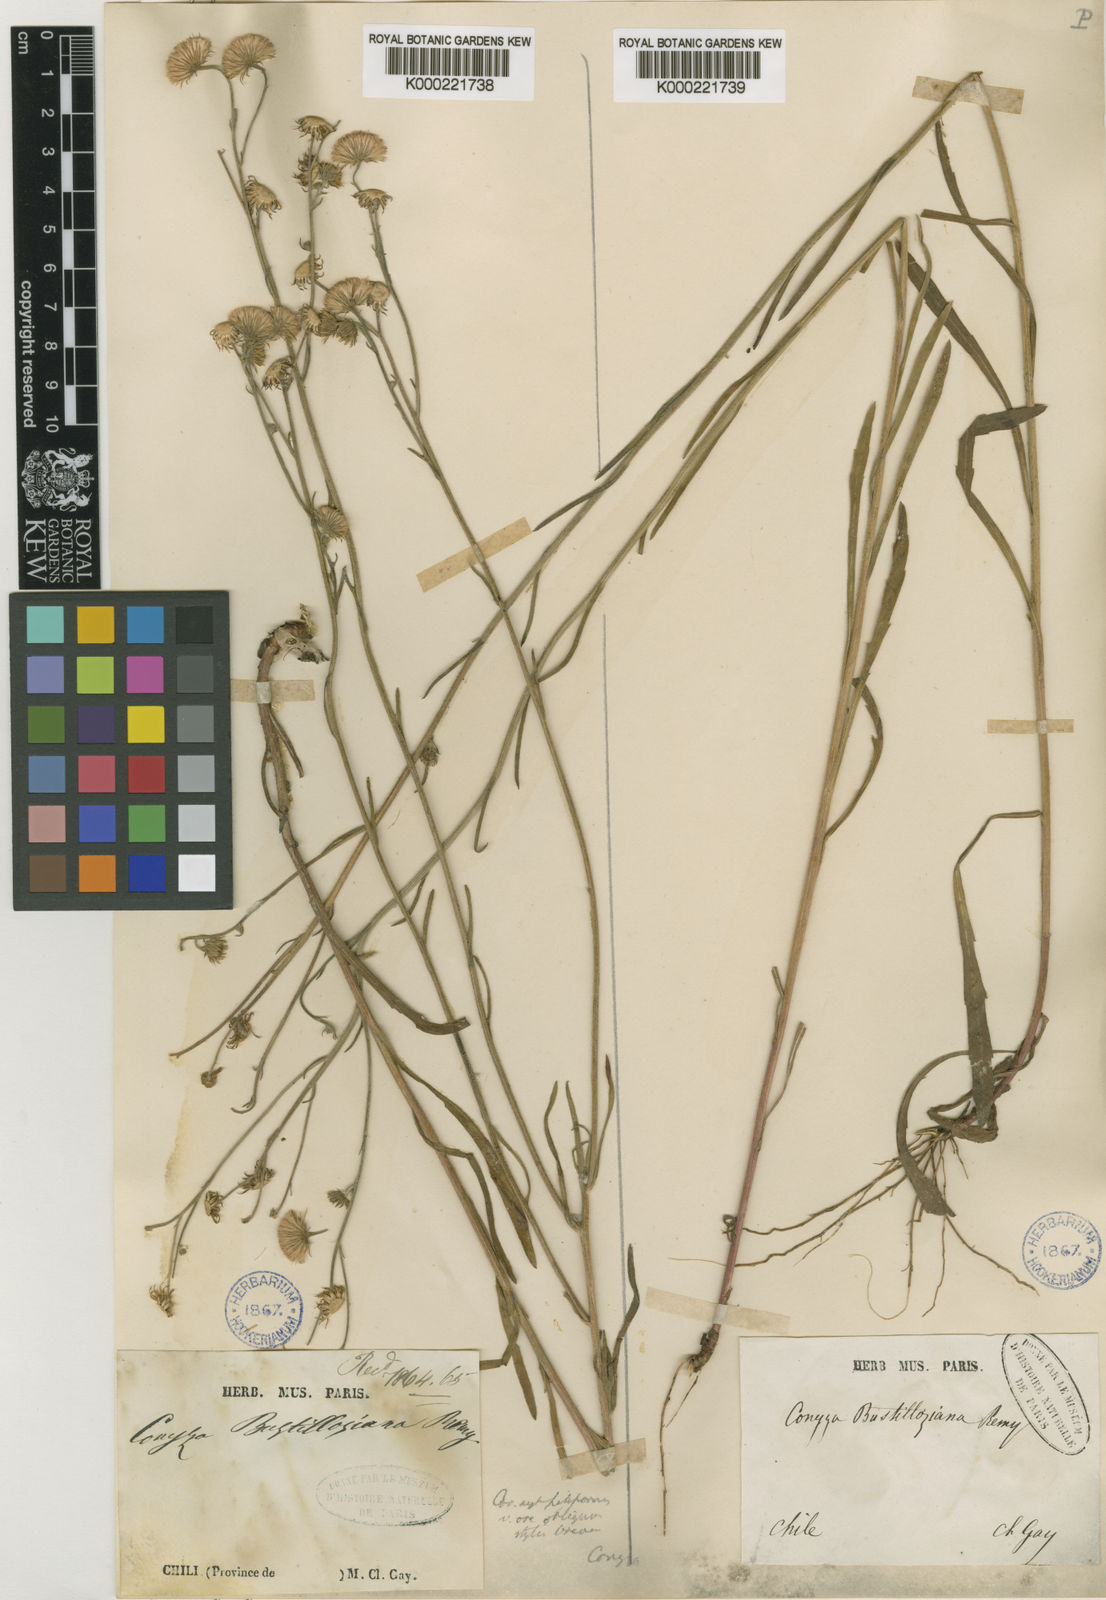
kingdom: Plantae
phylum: Tracheophyta
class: Magnoliopsida
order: Asterales
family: Asteraceae
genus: Erigeron
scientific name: Erigeron bustillosianus
